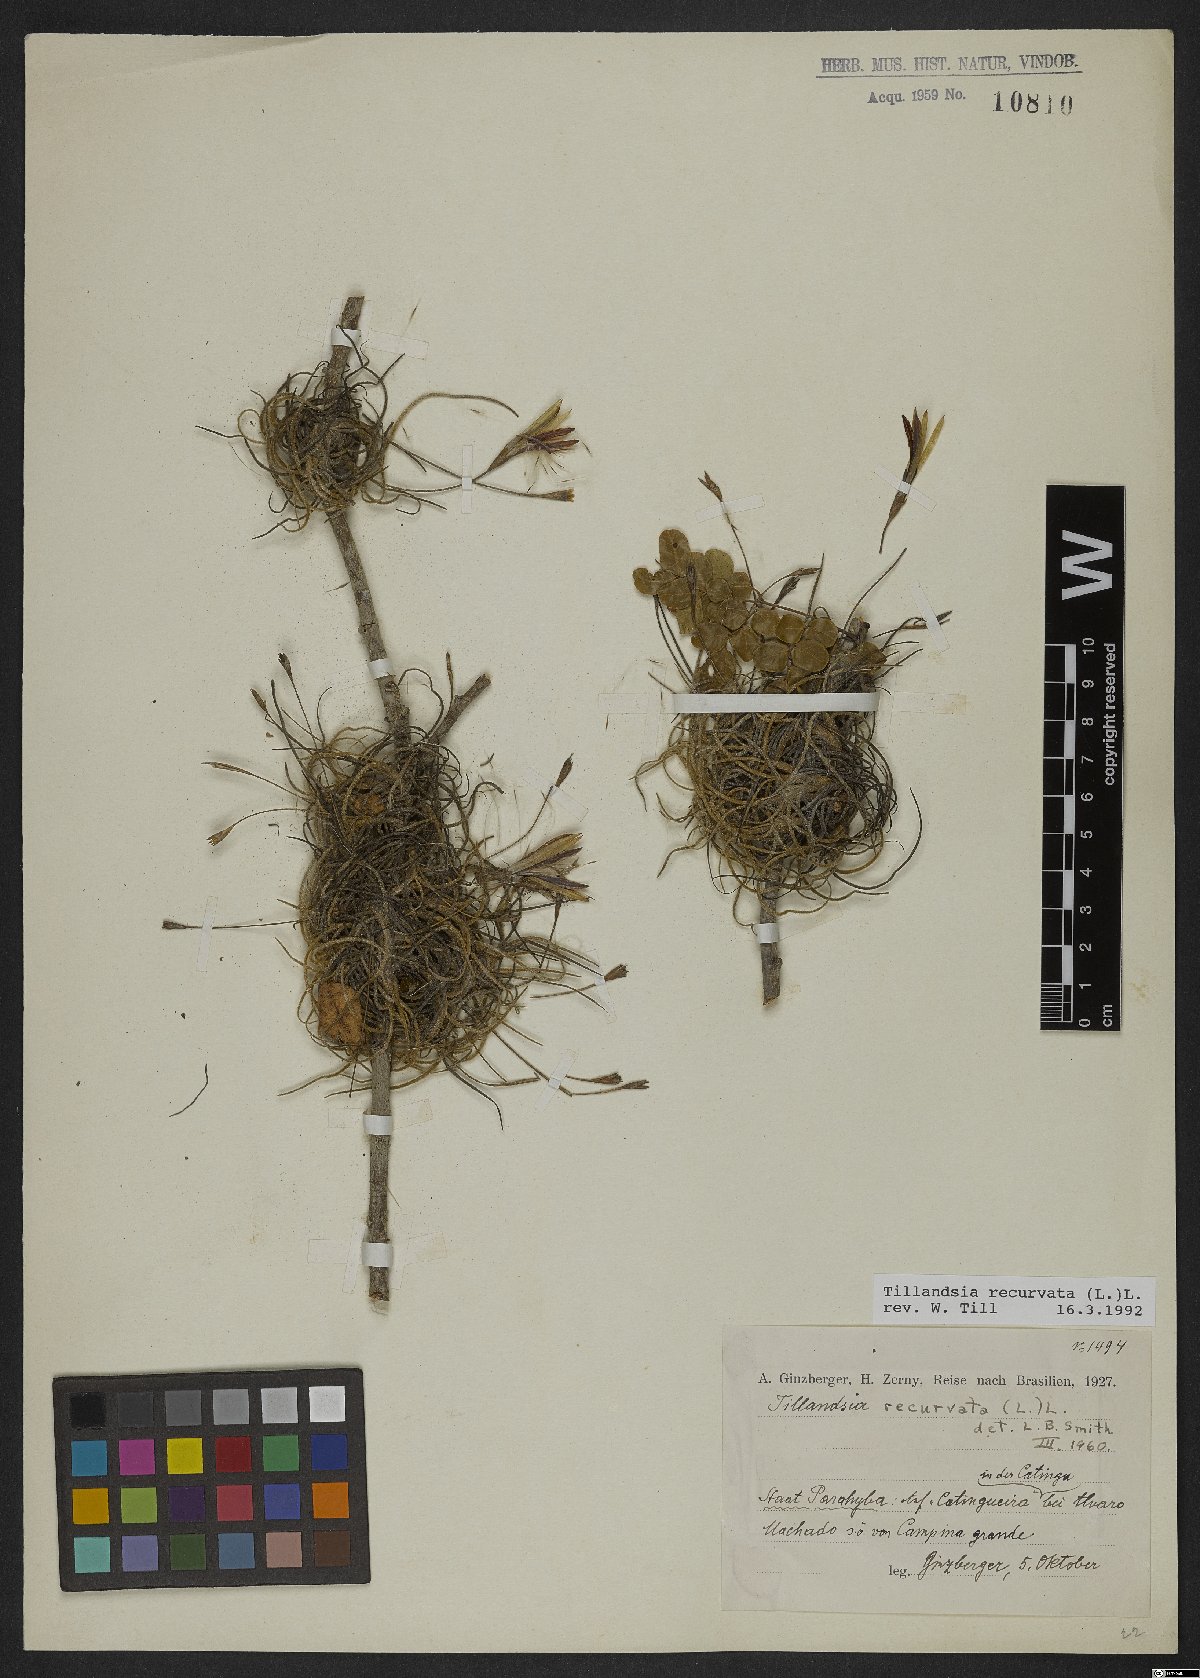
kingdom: Plantae
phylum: Tracheophyta
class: Liliopsida
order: Poales
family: Bromeliaceae
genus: Tillandsia
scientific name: Tillandsia recurvata
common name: Small ballmoss
